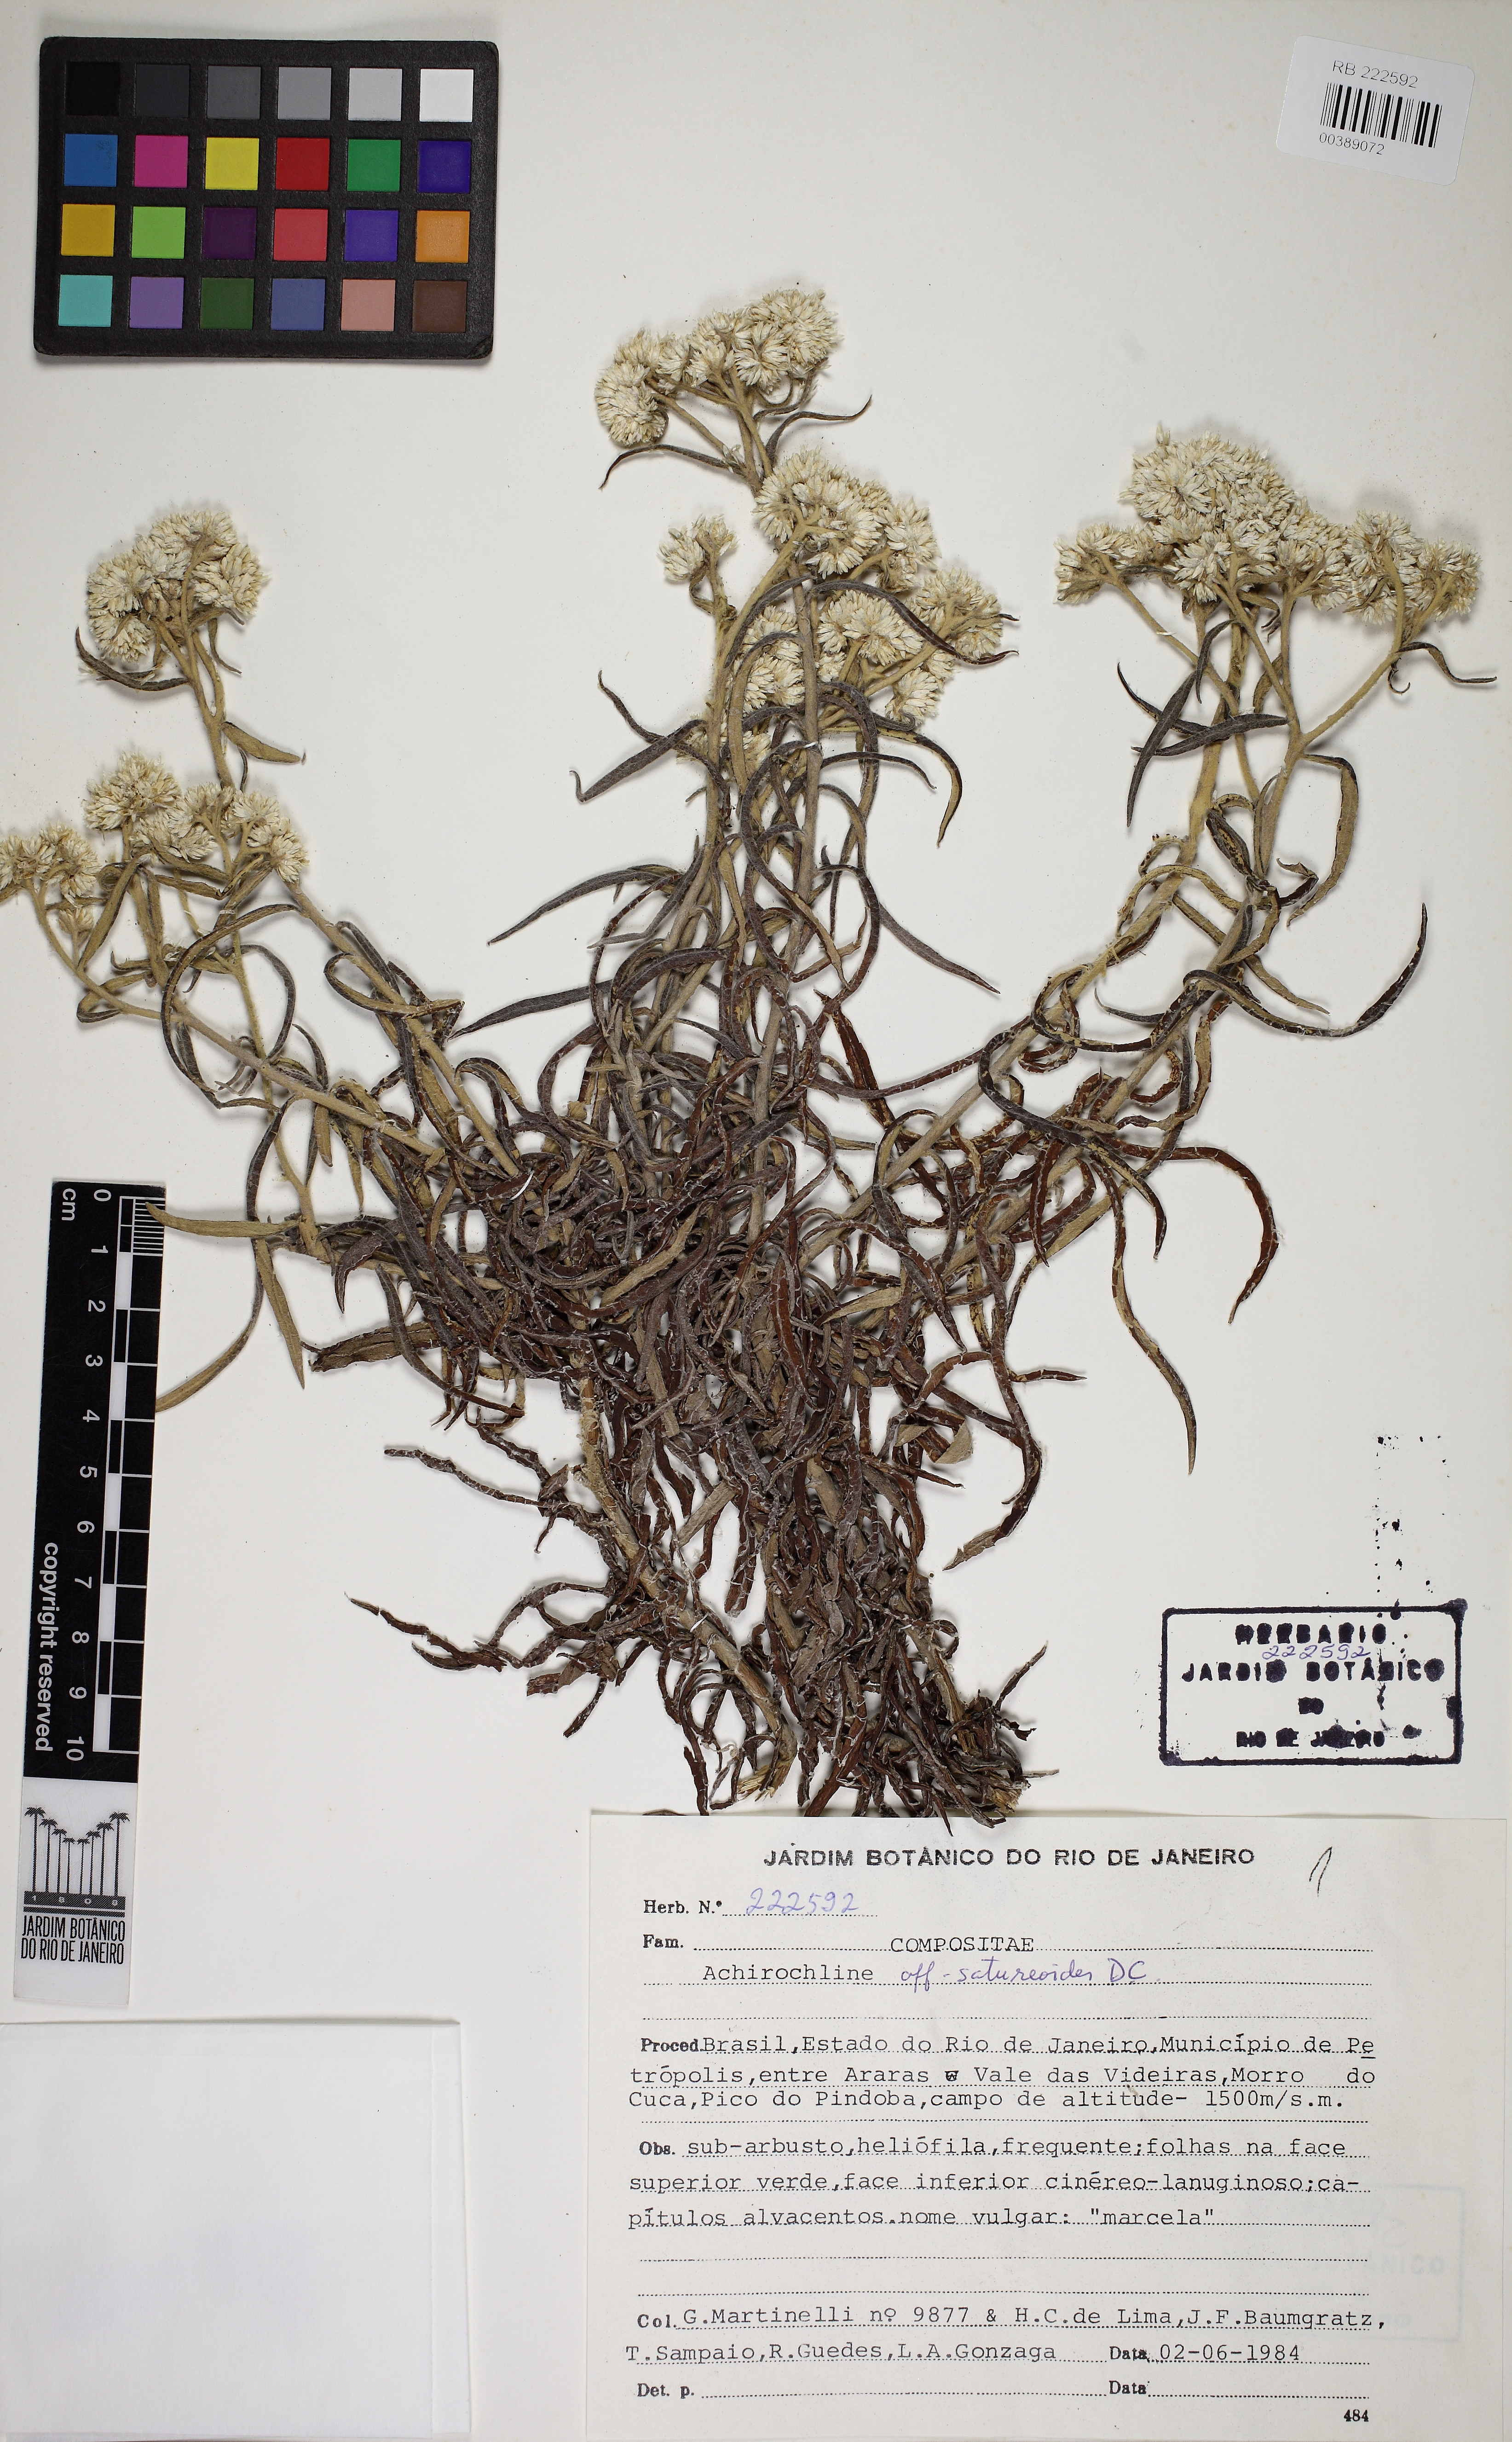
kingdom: Plantae
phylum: Tracheophyta
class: Magnoliopsida
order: Asterales
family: Asteraceae
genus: Achyrocline
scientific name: Achyrocline satureioides
